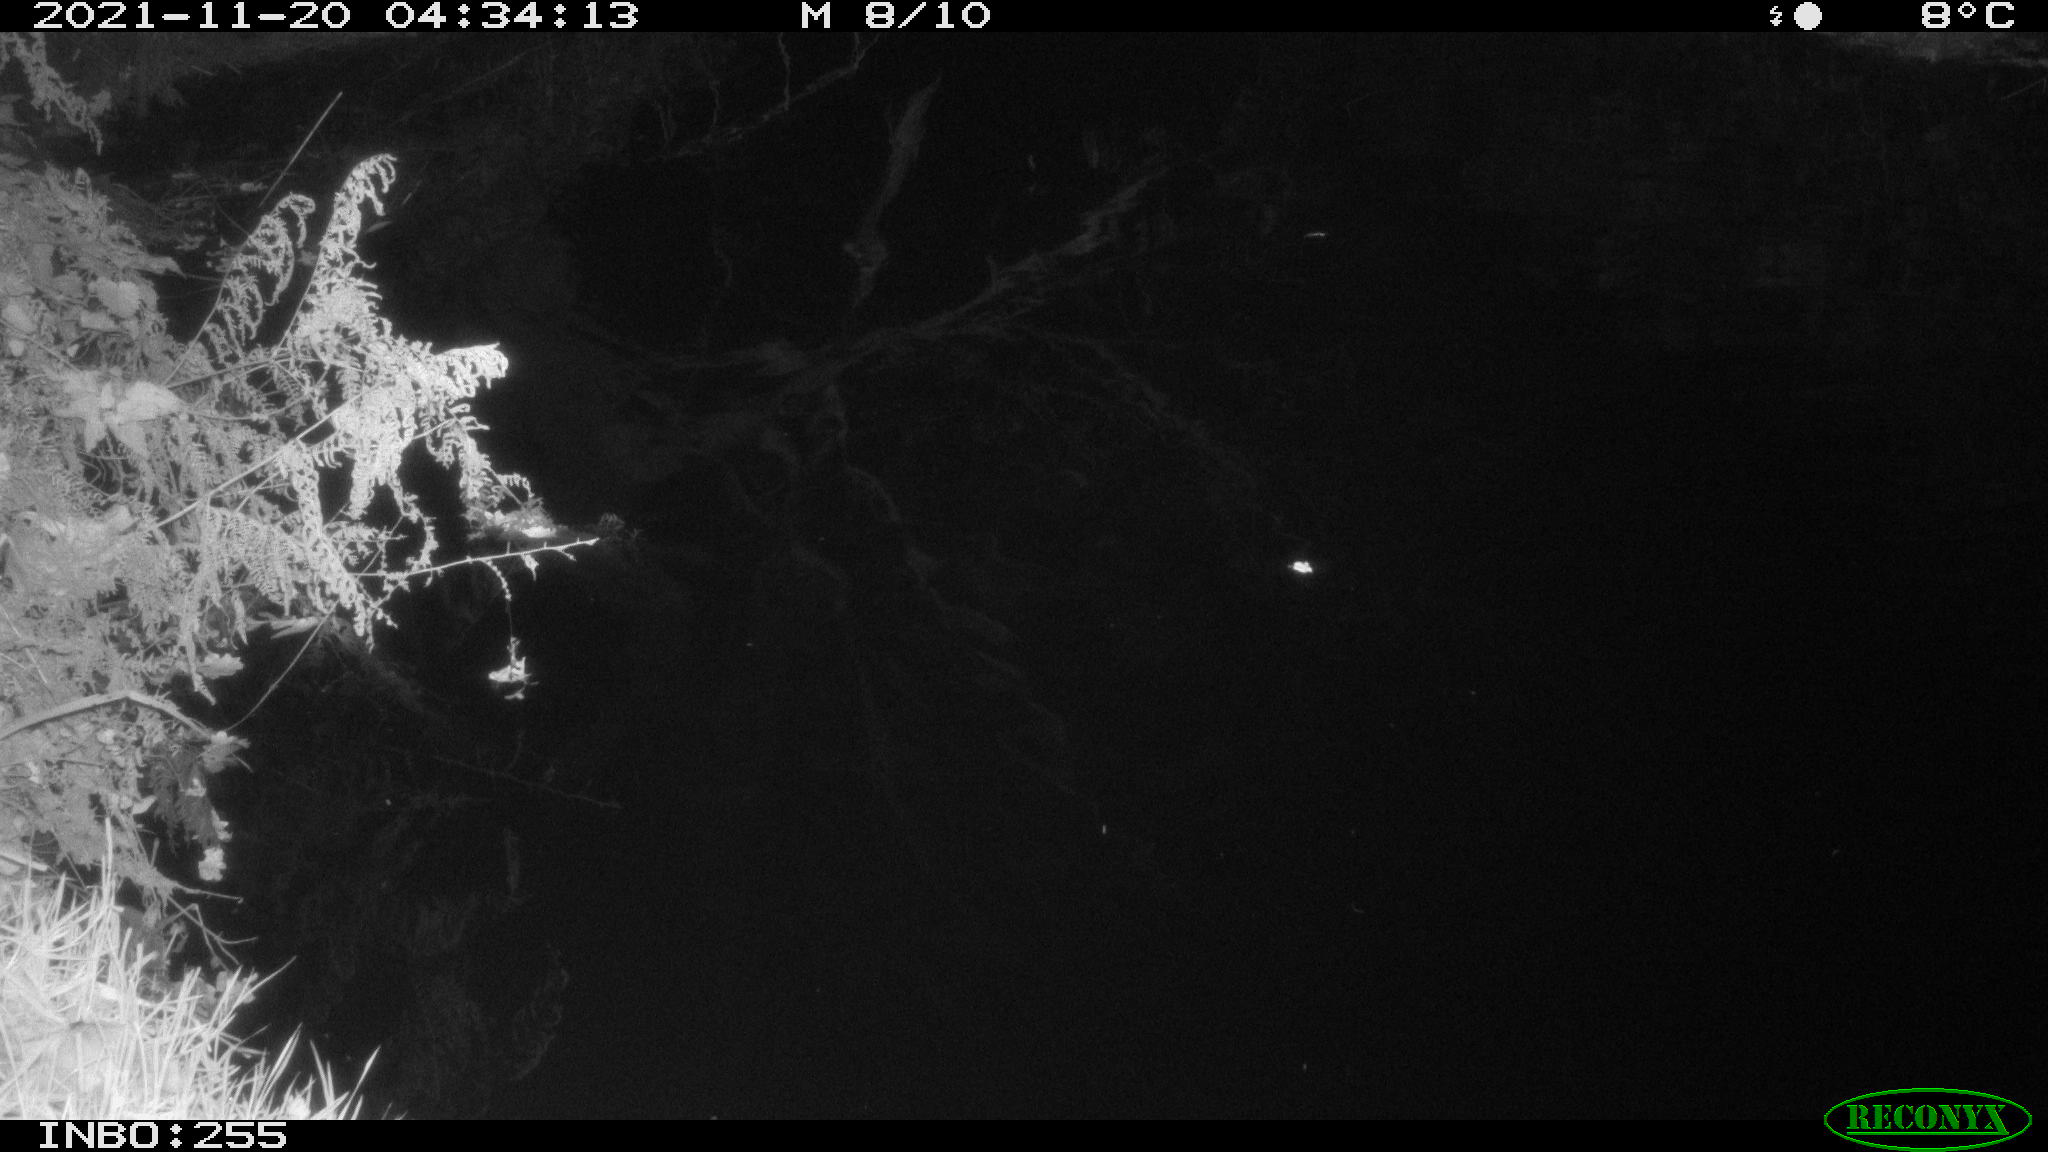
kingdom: Animalia
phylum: Chordata
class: Aves
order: Anseriformes
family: Anatidae
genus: Anas
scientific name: Anas platyrhynchos
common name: Mallard
